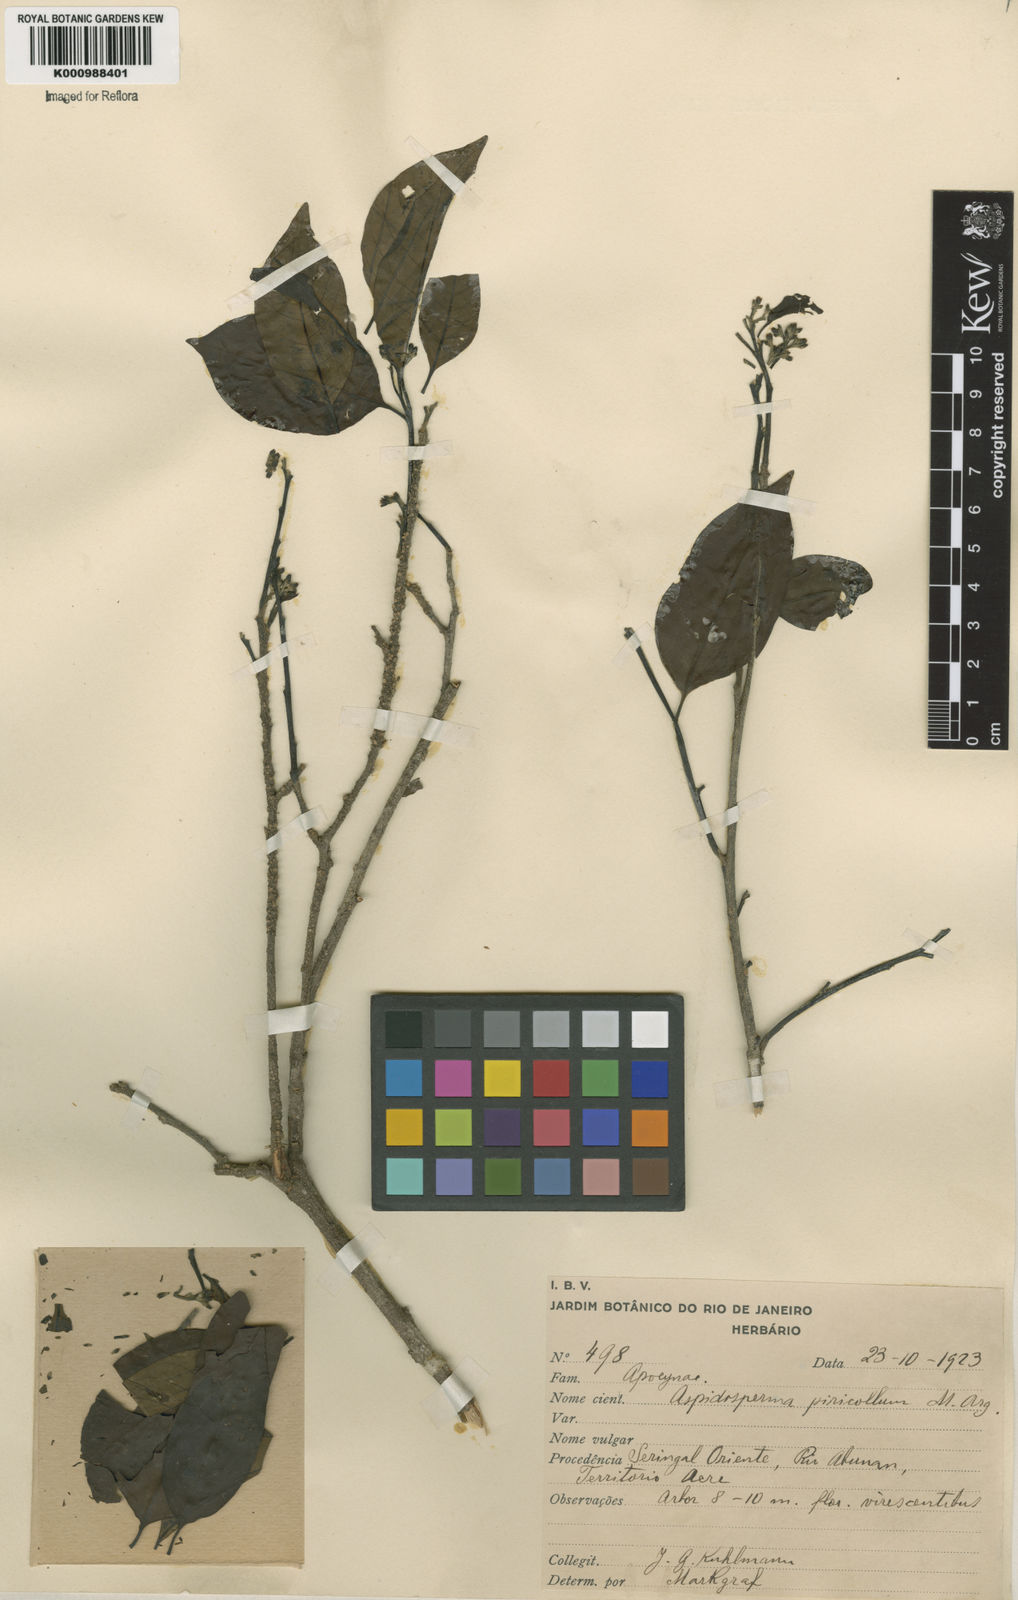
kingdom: Plantae
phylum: Tracheophyta
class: Magnoliopsida
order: Gentianales
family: Apocynaceae
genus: Aspidosperma
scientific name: Aspidosperma
